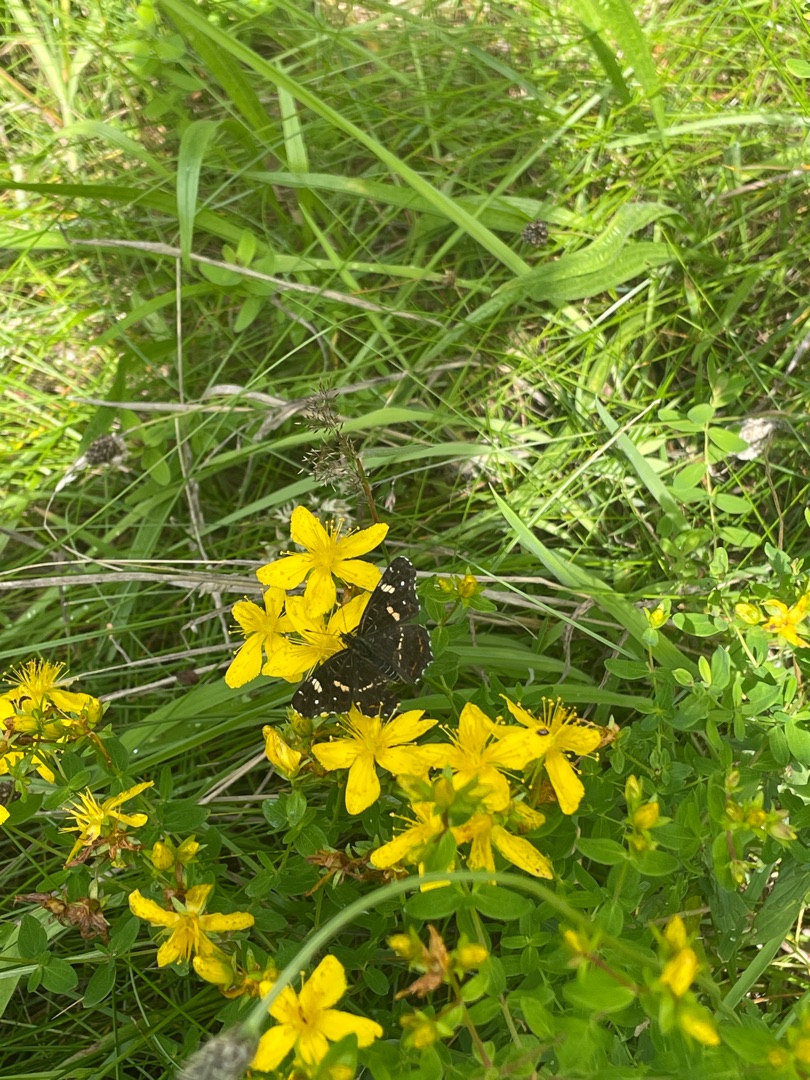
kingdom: Animalia
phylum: Arthropoda
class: Insecta
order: Lepidoptera
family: Nymphalidae
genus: Araschnia
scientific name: Araschnia levana
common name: Nældesommerfugl
